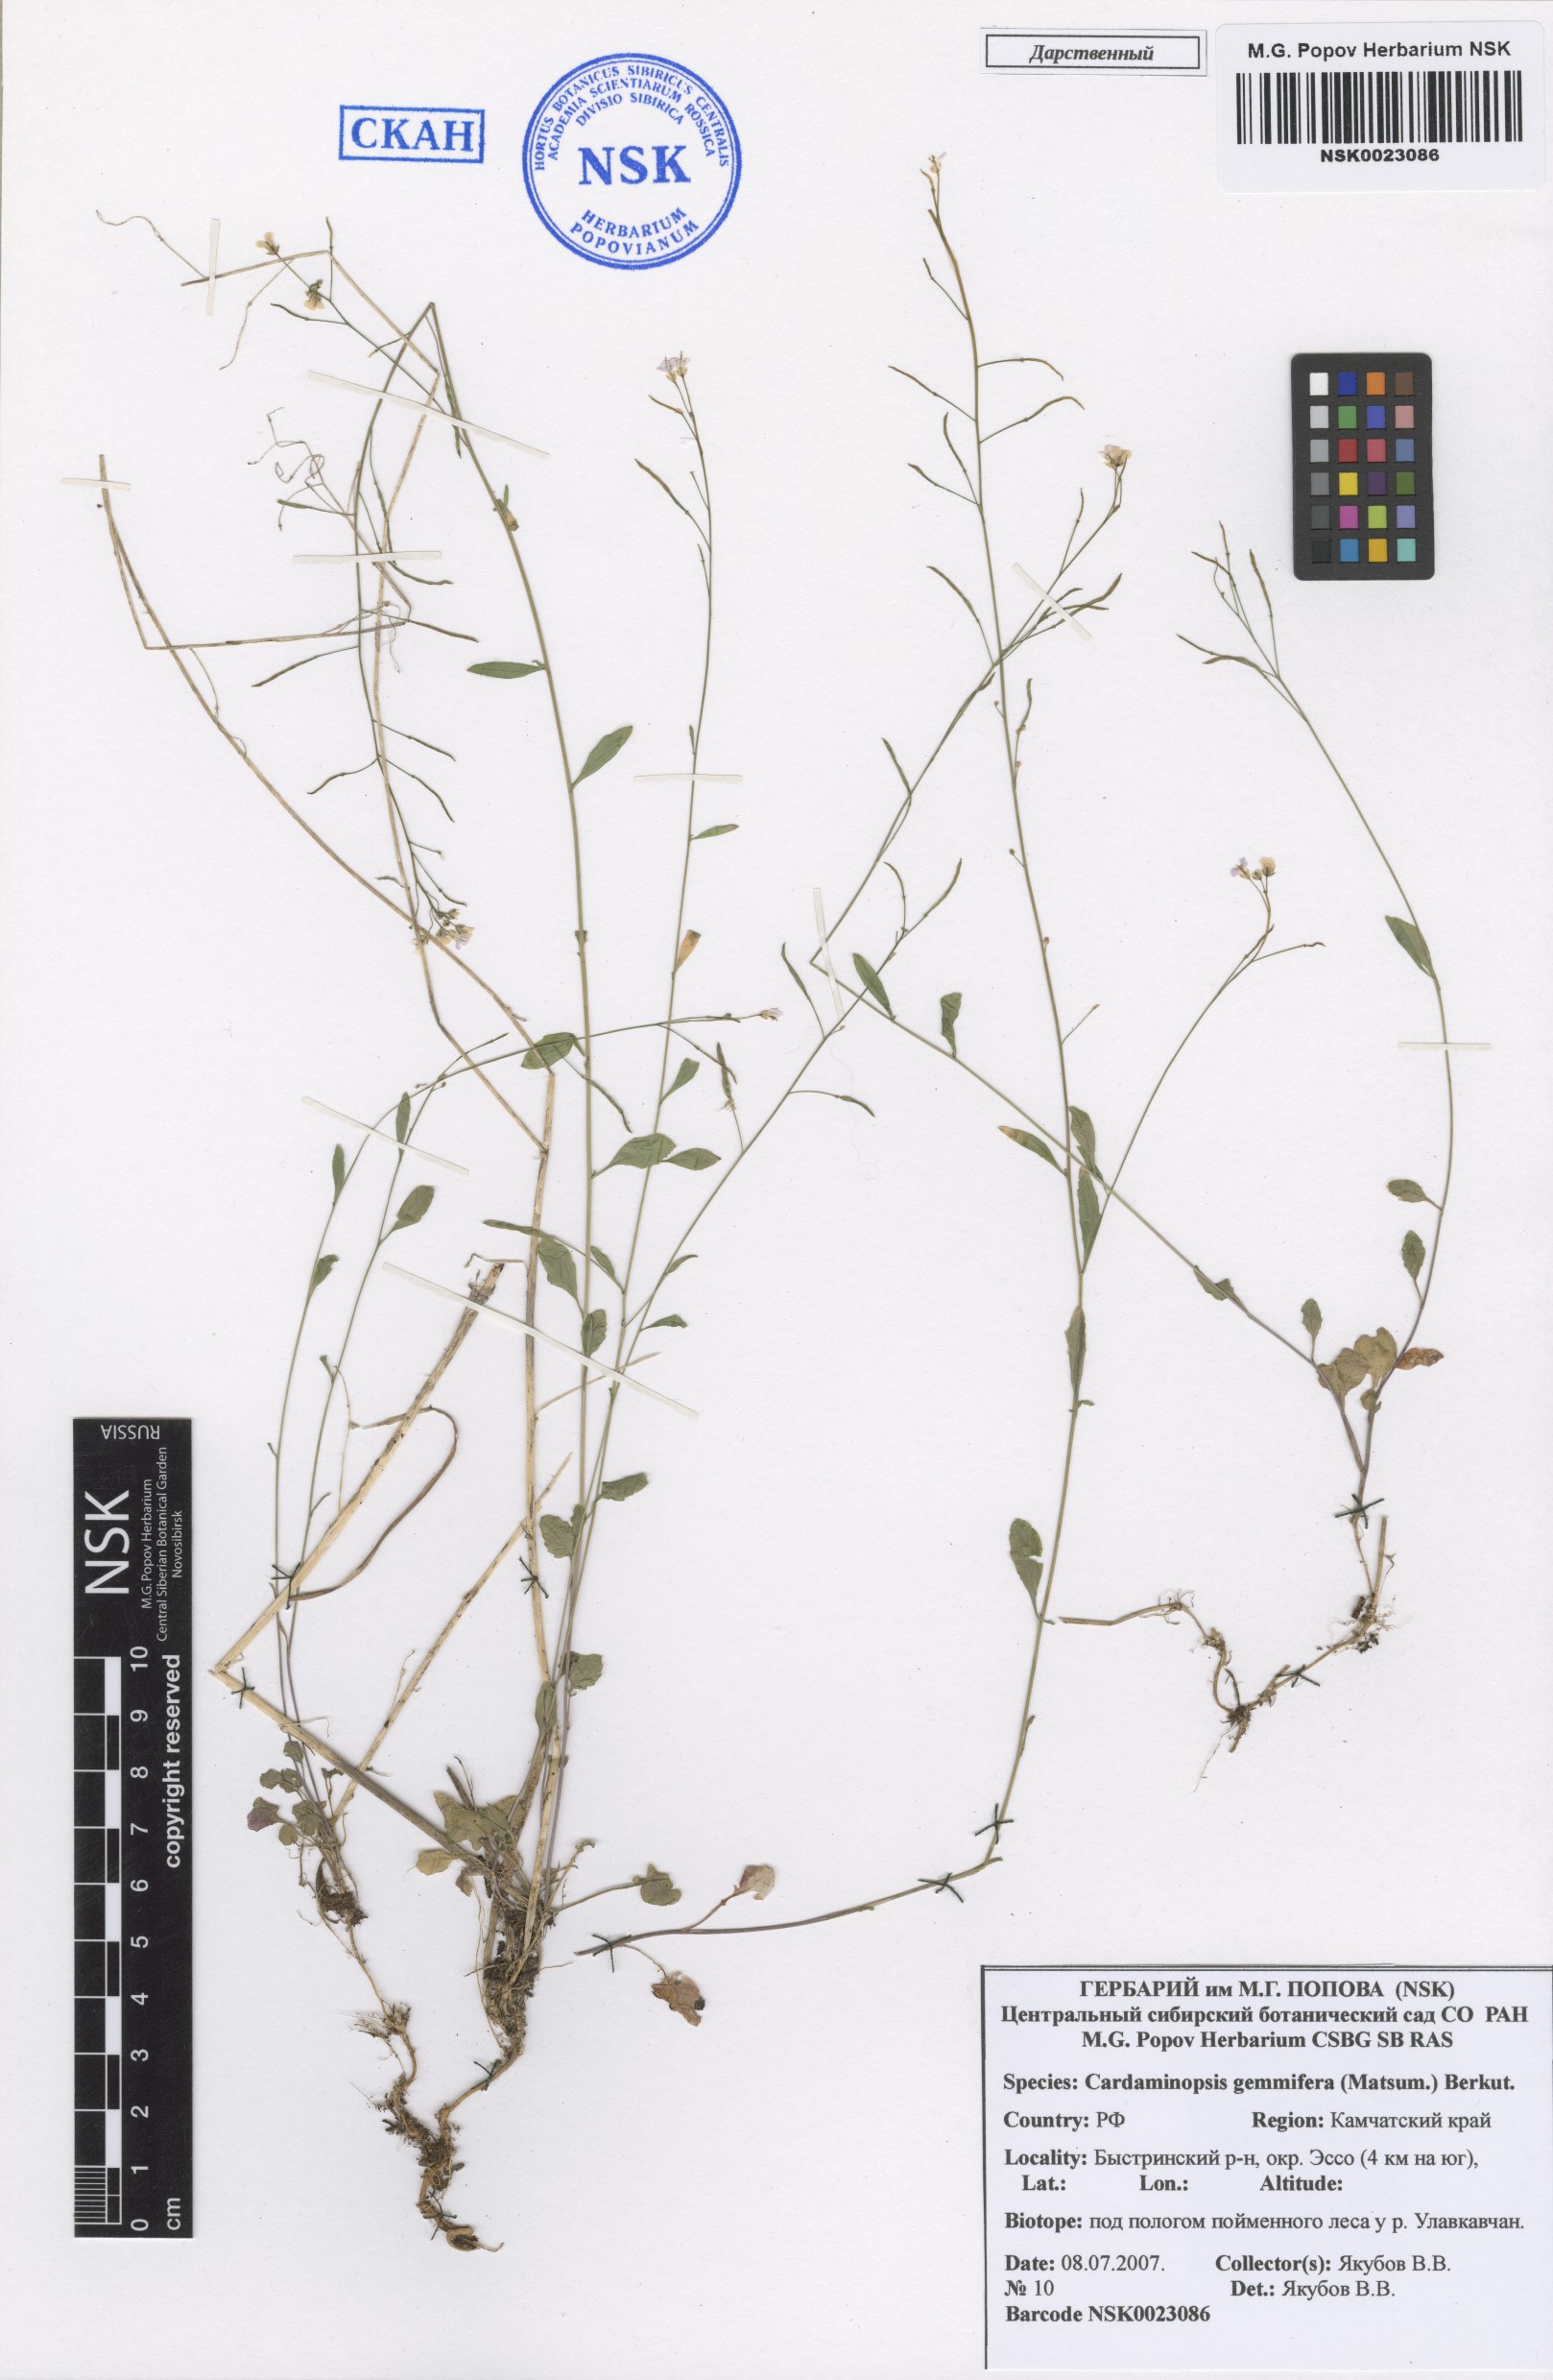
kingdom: Plantae
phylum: Tracheophyta
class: Magnoliopsida
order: Brassicales
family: Brassicaceae
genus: Arabidopsis
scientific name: Arabidopsis halleri
